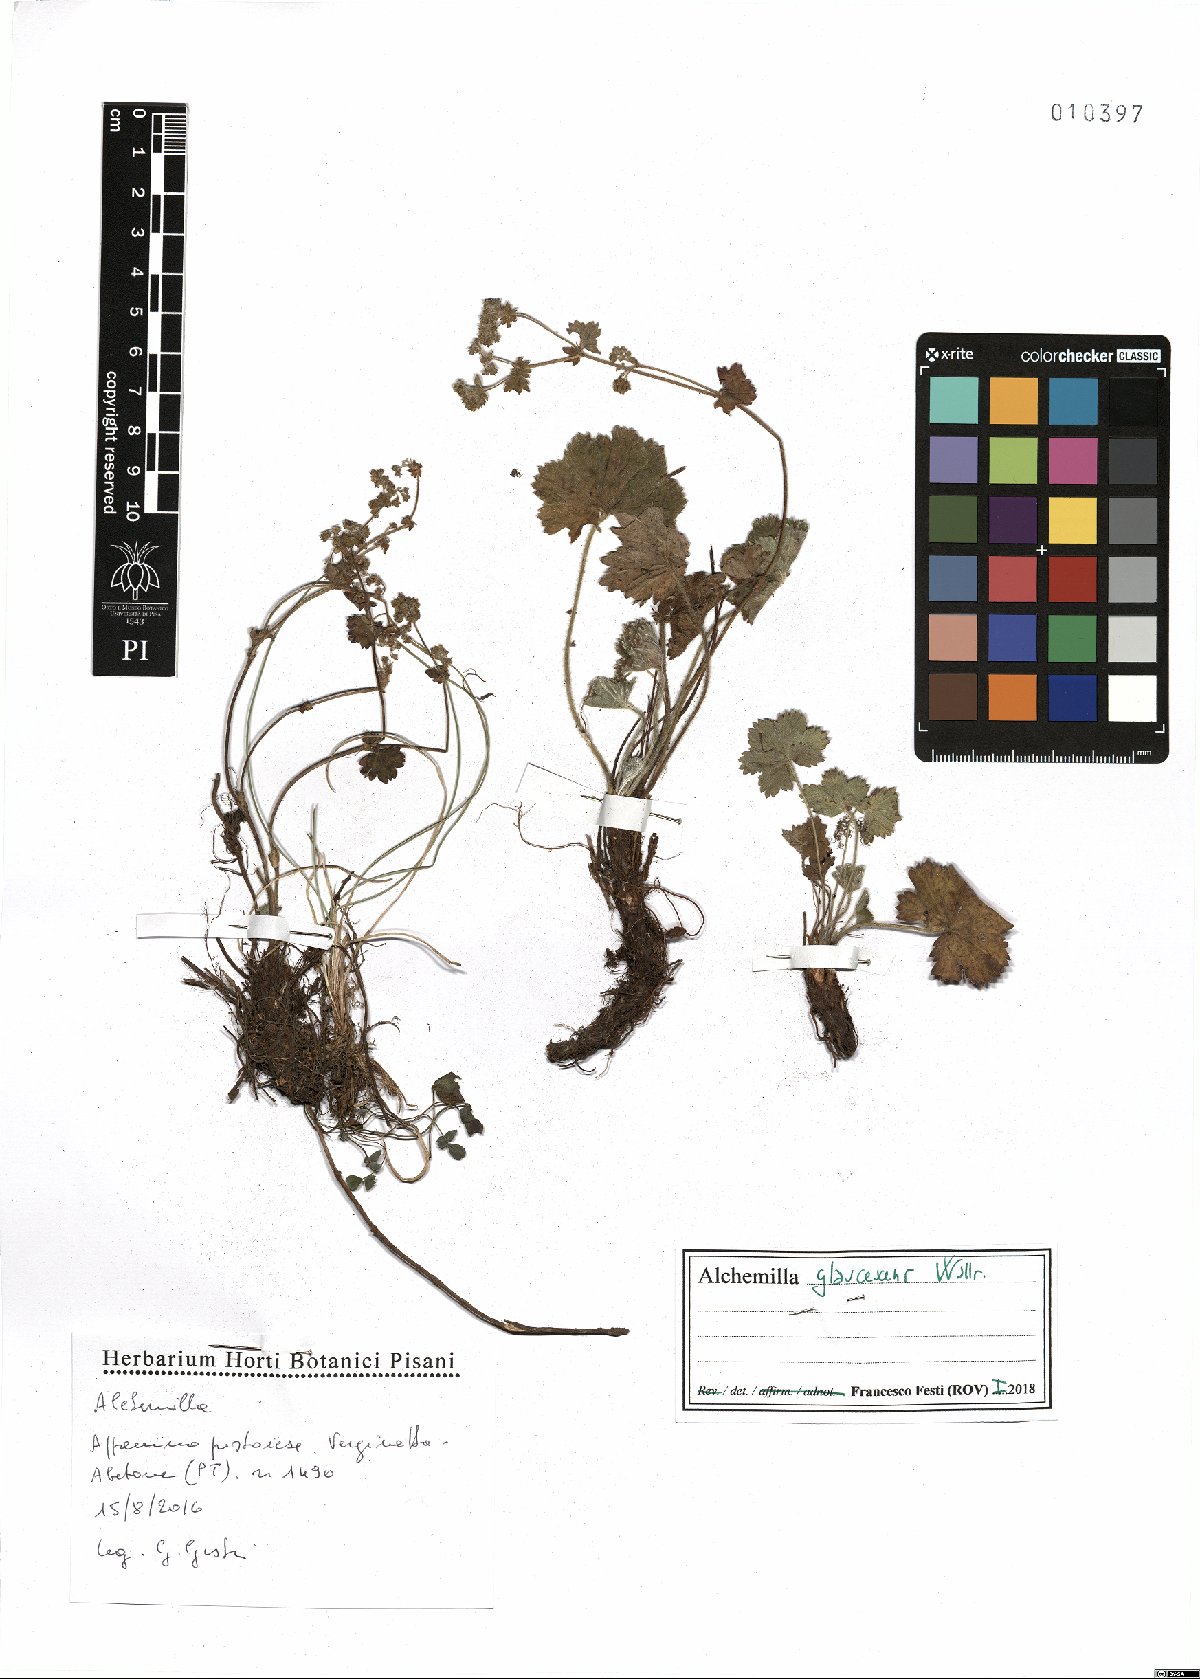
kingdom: Plantae
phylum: Tracheophyta
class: Magnoliopsida
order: Rosales
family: Rosaceae
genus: Alchemilla
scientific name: Alchemilla glaucescens
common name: Silky lady's mantle
